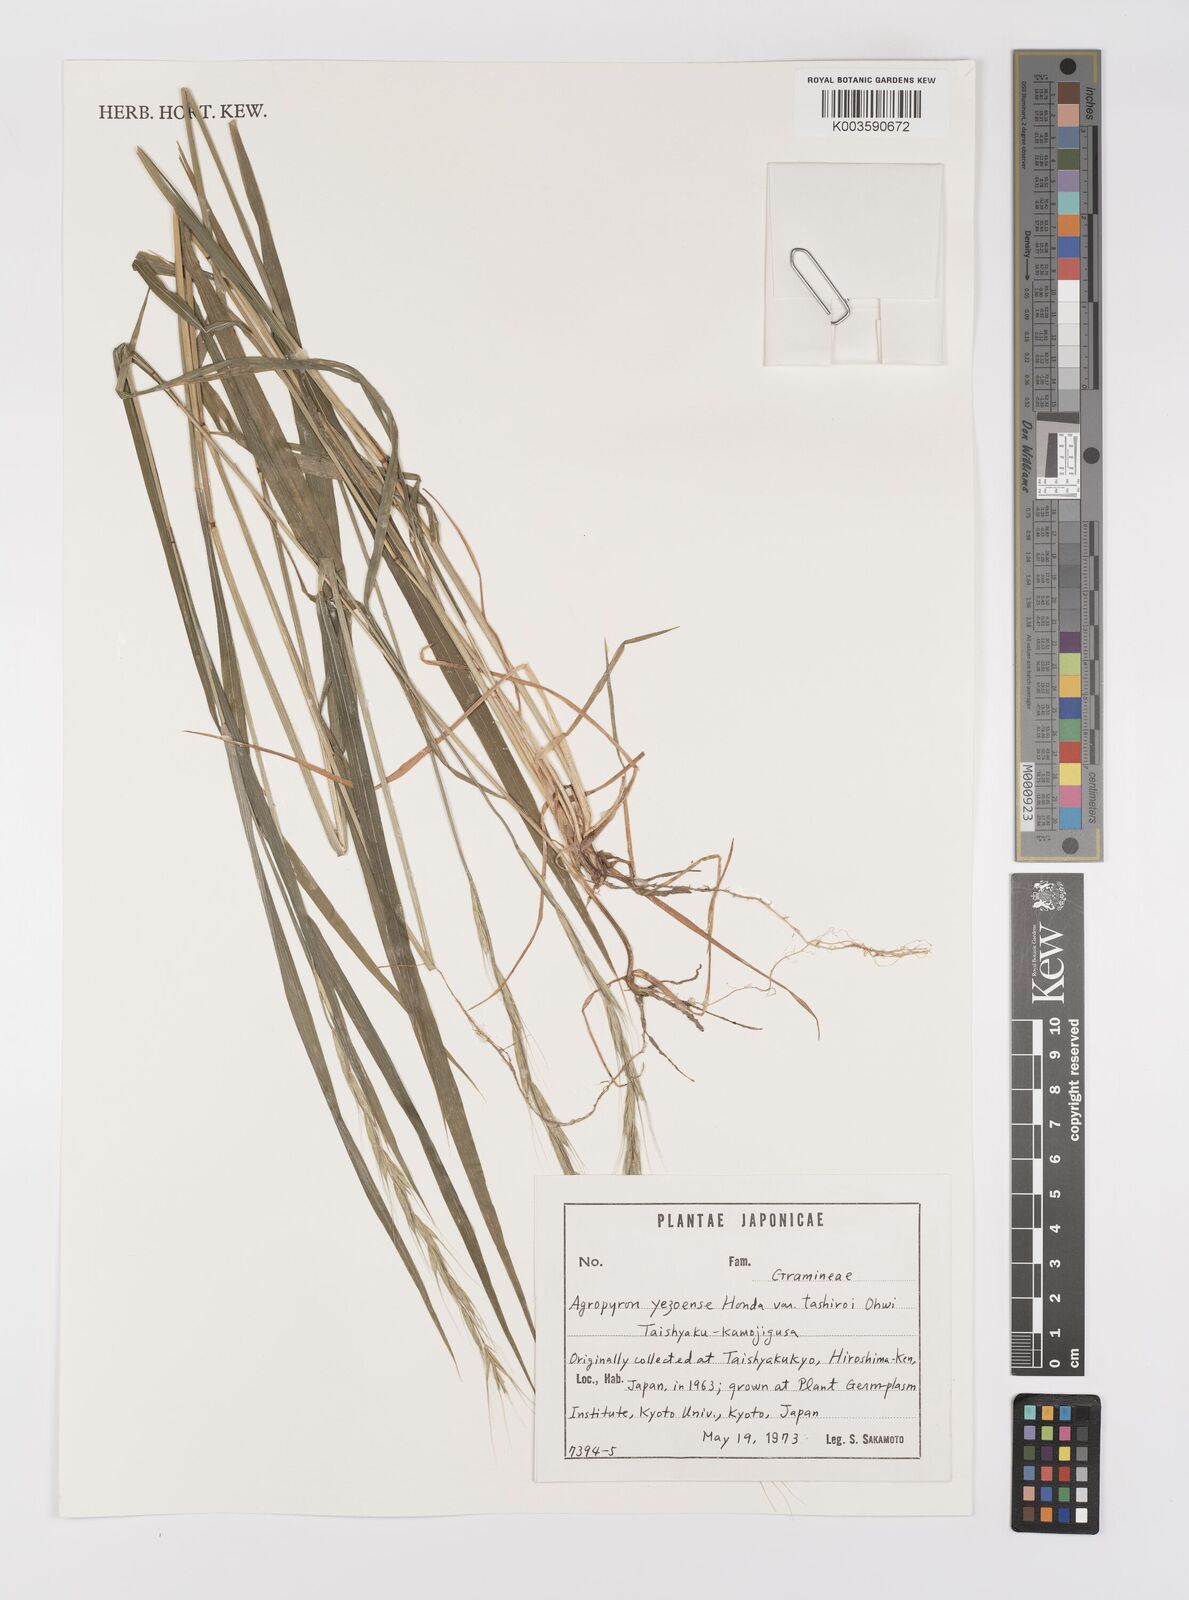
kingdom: Plantae
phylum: Tracheophyta
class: Liliopsida
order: Poales
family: Poaceae
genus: Elymus
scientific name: Elymus nipponicus
